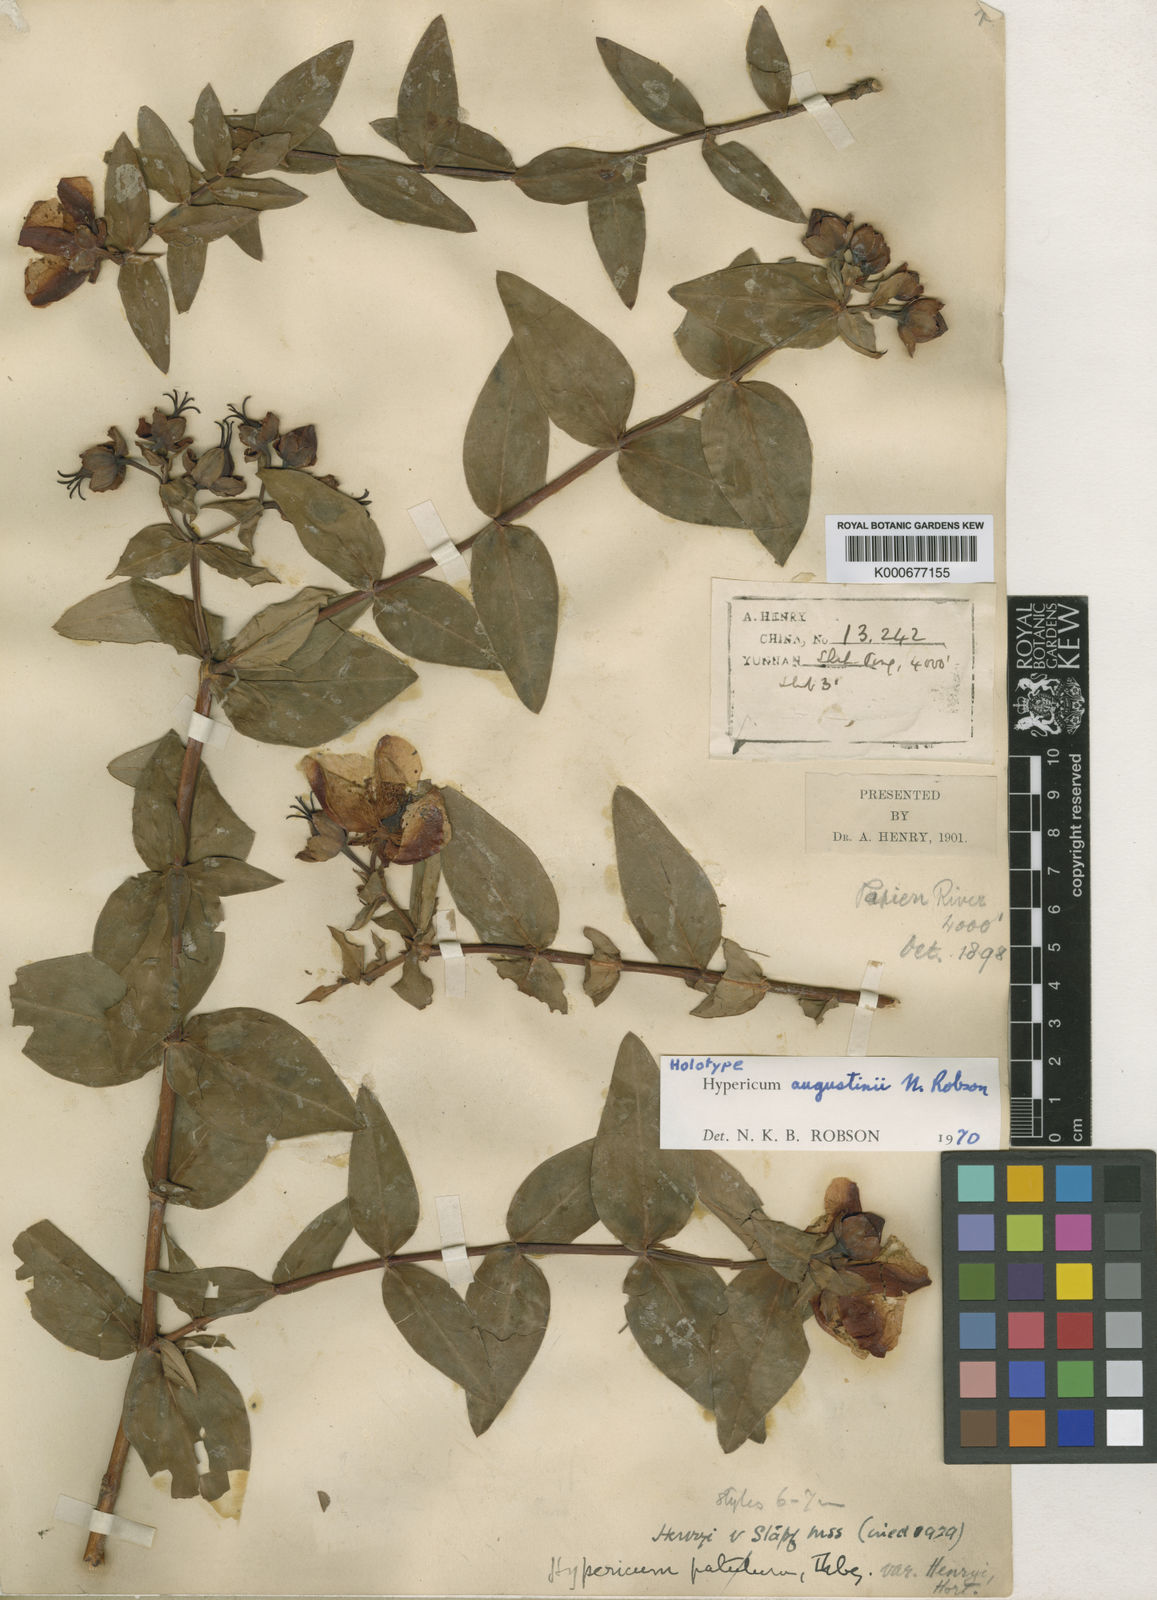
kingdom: Plantae
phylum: Tracheophyta
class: Magnoliopsida
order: Malpighiales
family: Hypericaceae
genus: Hypericum
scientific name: Hypericum augustini
